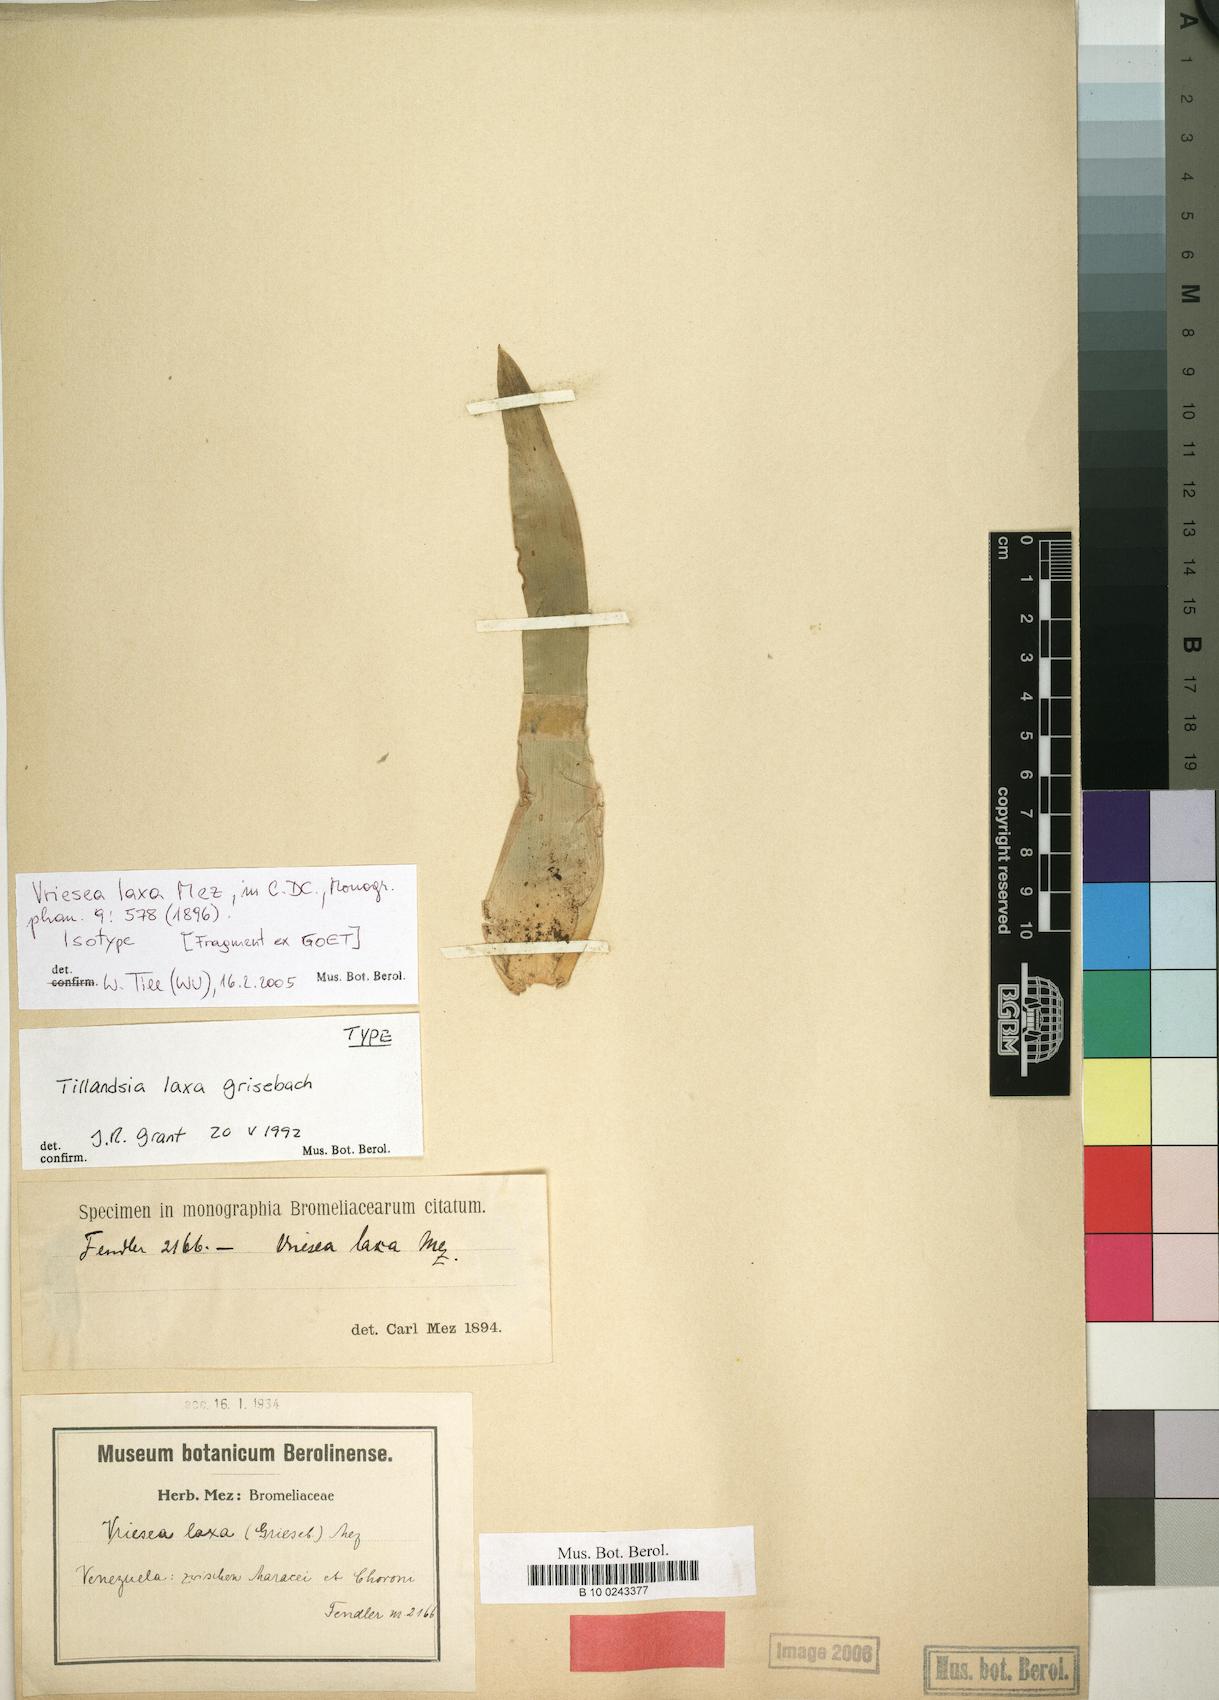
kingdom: Plantae
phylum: Tracheophyta
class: Liliopsida
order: Poales
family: Bromeliaceae
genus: Vriesea
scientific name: Vriesea laxa
